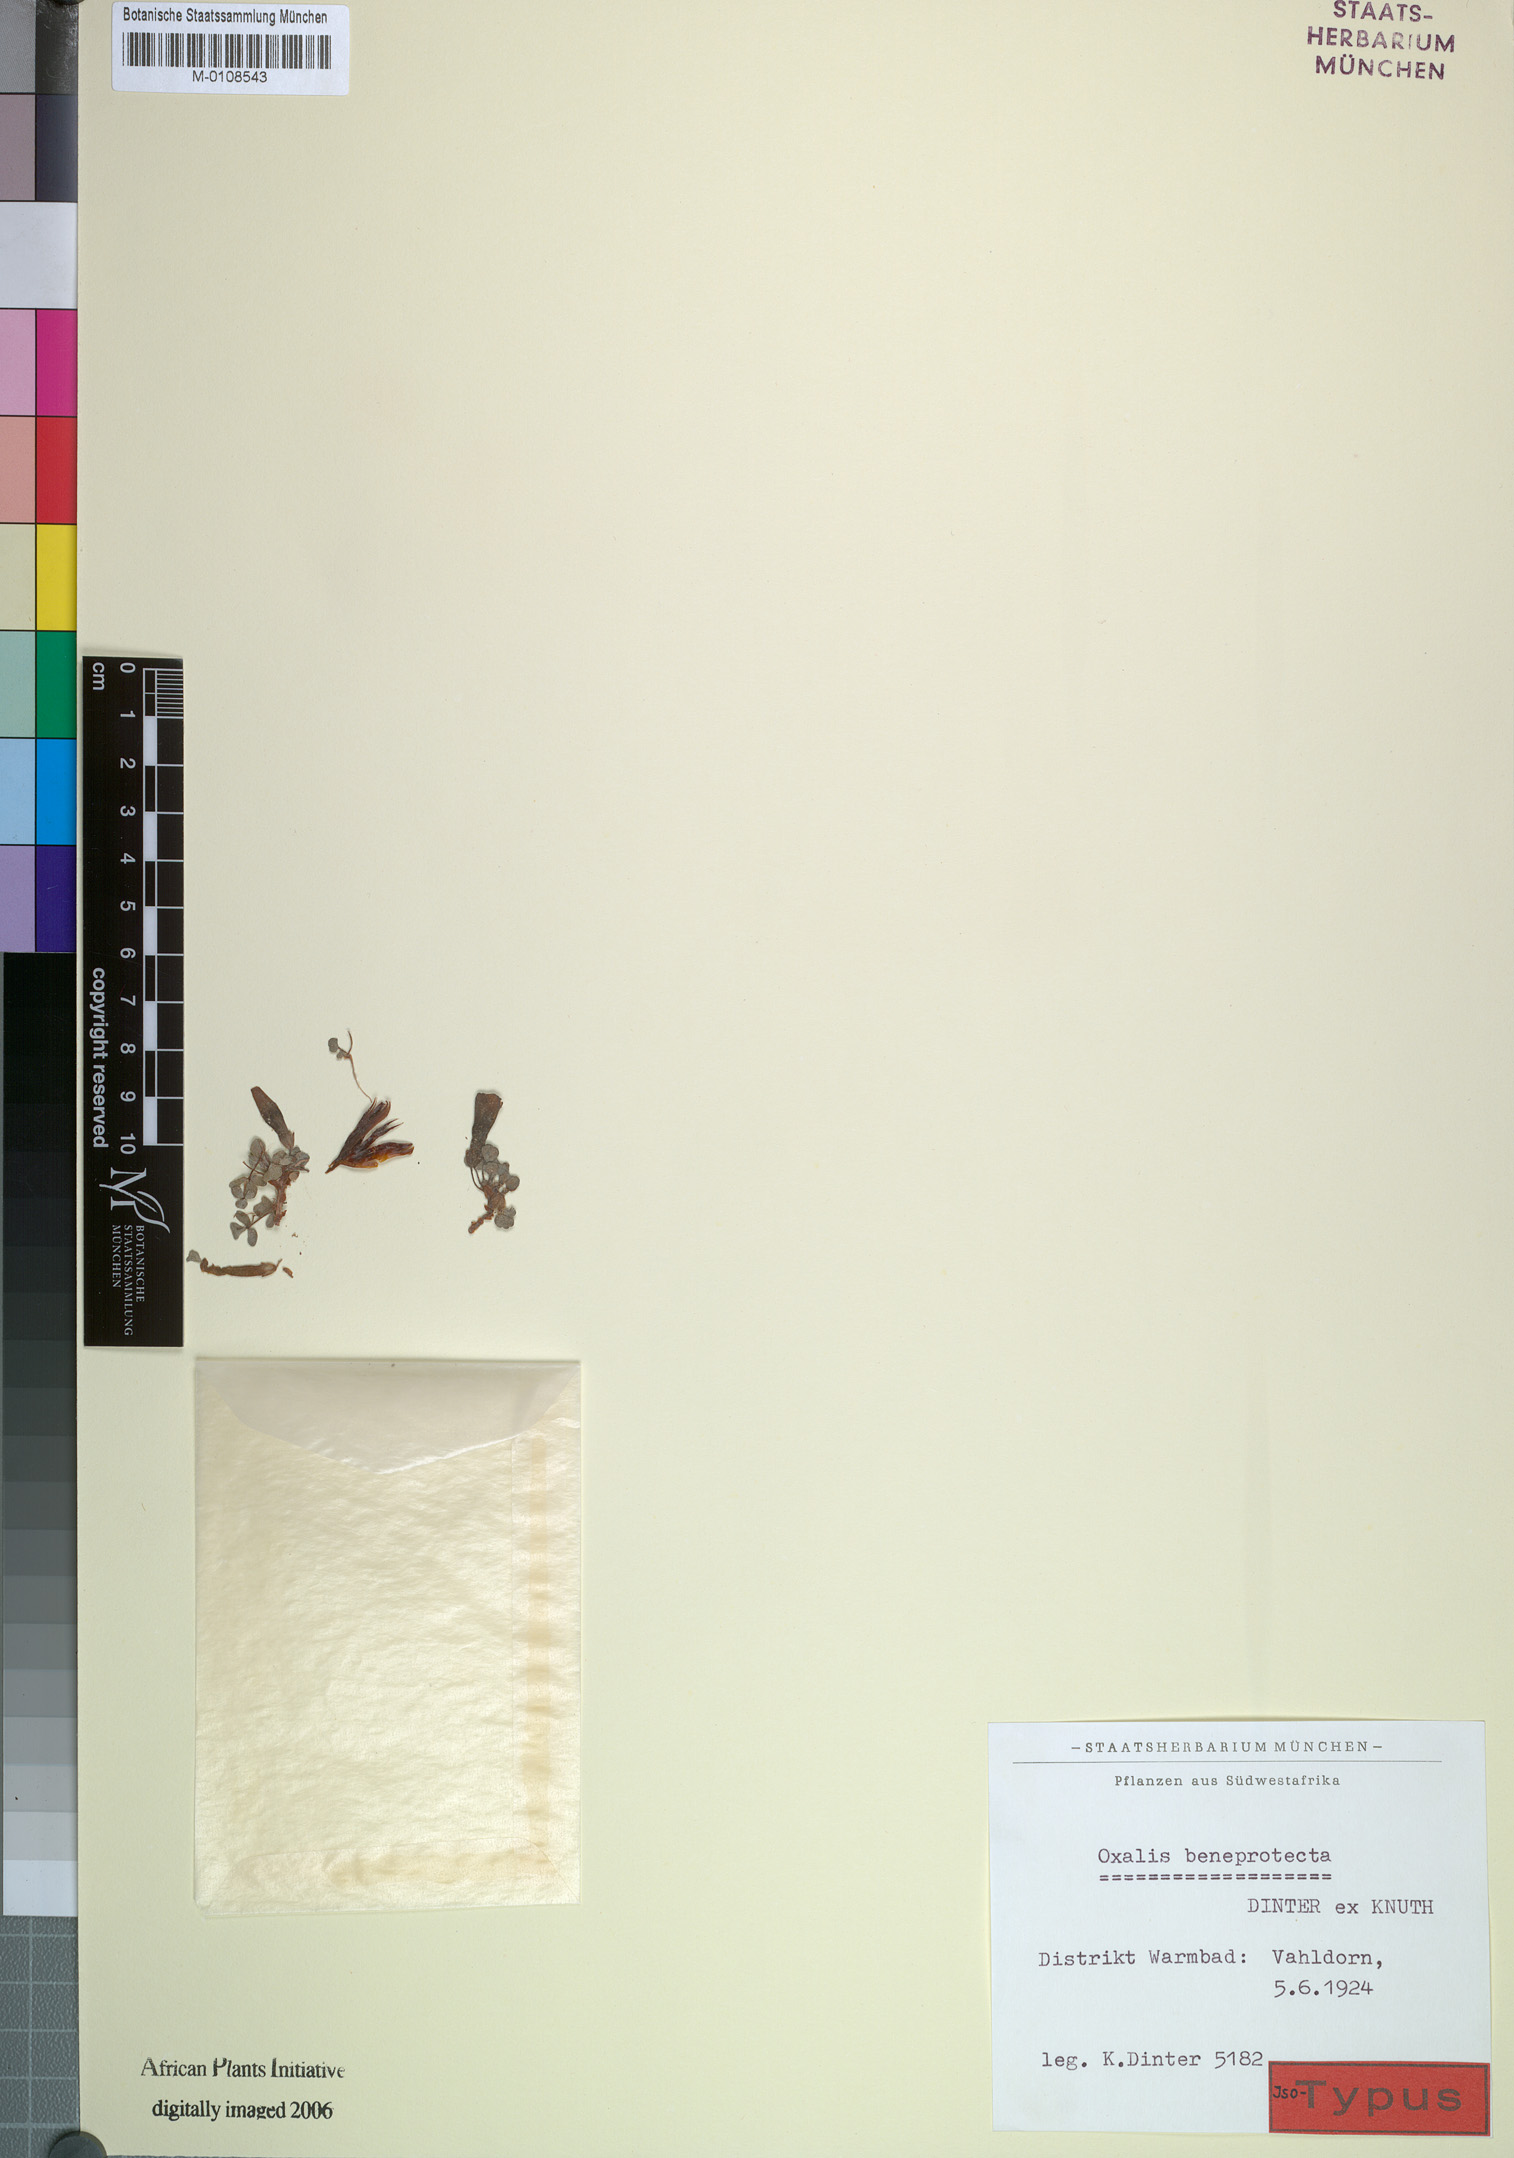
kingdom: Plantae
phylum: Tracheophyta
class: Magnoliopsida
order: Oxalidales
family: Oxalidaceae
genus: Oxalis
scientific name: Oxalis pulchella
